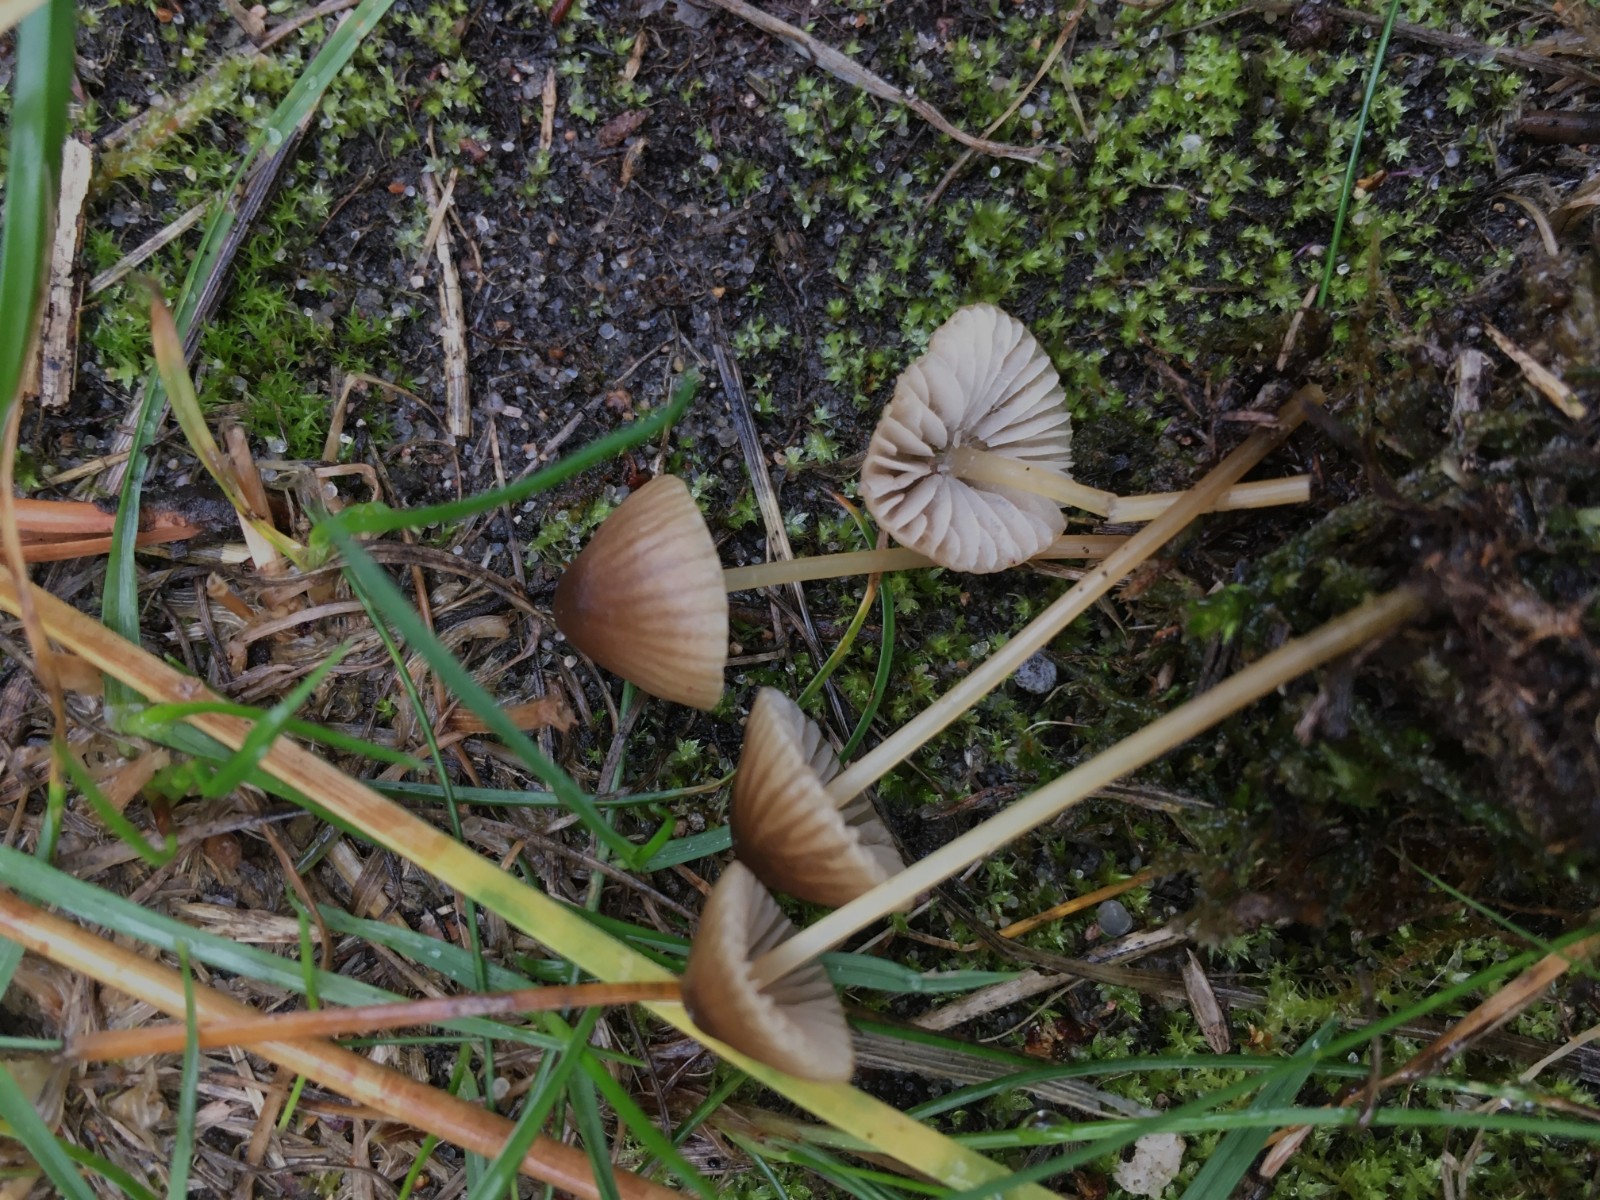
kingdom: Fungi
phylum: Basidiomycota
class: Agaricomycetes
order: Agaricales
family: Mycenaceae
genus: Mycena
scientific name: Mycena olivaceomarginata
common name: brunægget huesvamp
